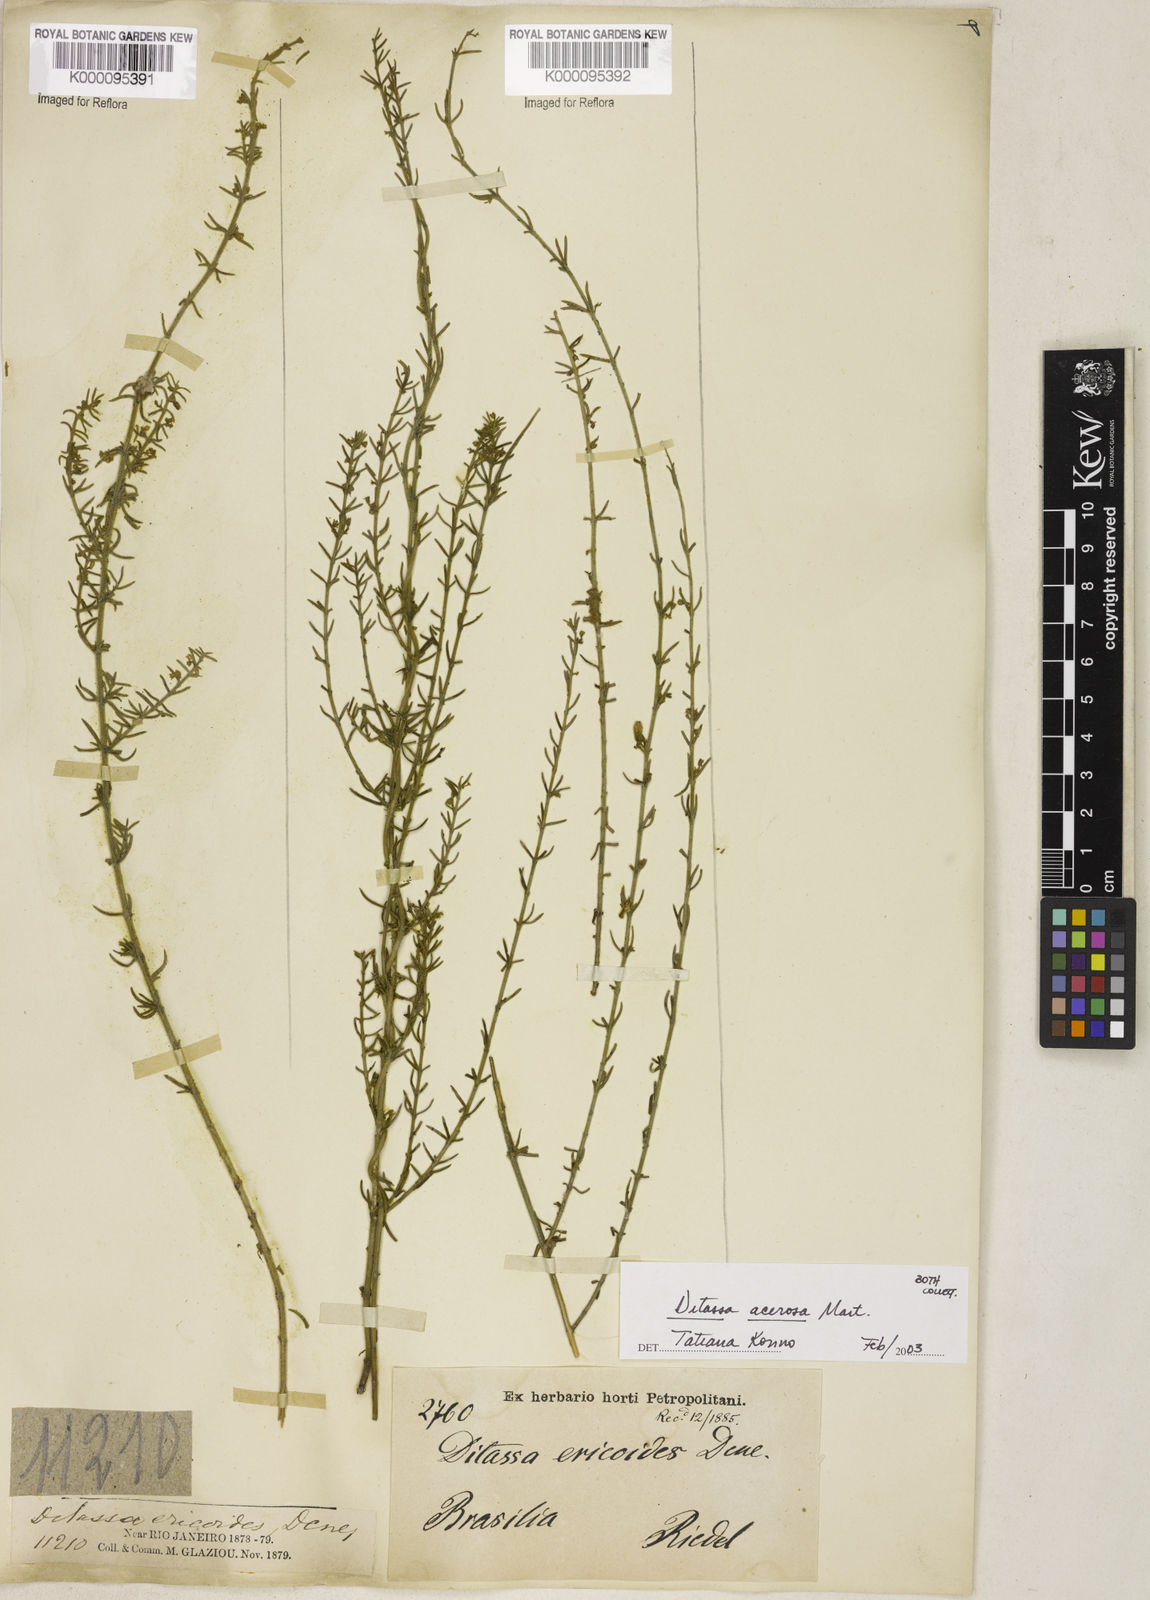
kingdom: Plantae
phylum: Tracheophyta
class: Magnoliopsida
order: Gentianales
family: Apocynaceae
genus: Minaria
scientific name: Minaria acerosa
